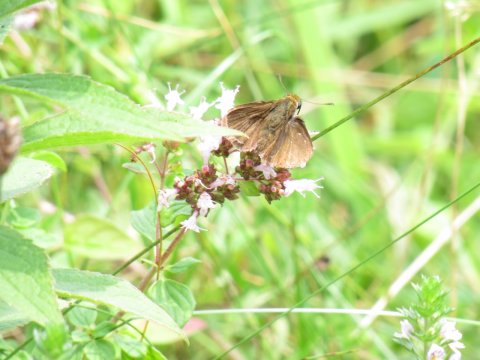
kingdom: Animalia
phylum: Arthropoda
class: Insecta
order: Lepidoptera
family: Hesperiidae
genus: Euphyes
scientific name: Euphyes vestris
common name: Dun Skipper
